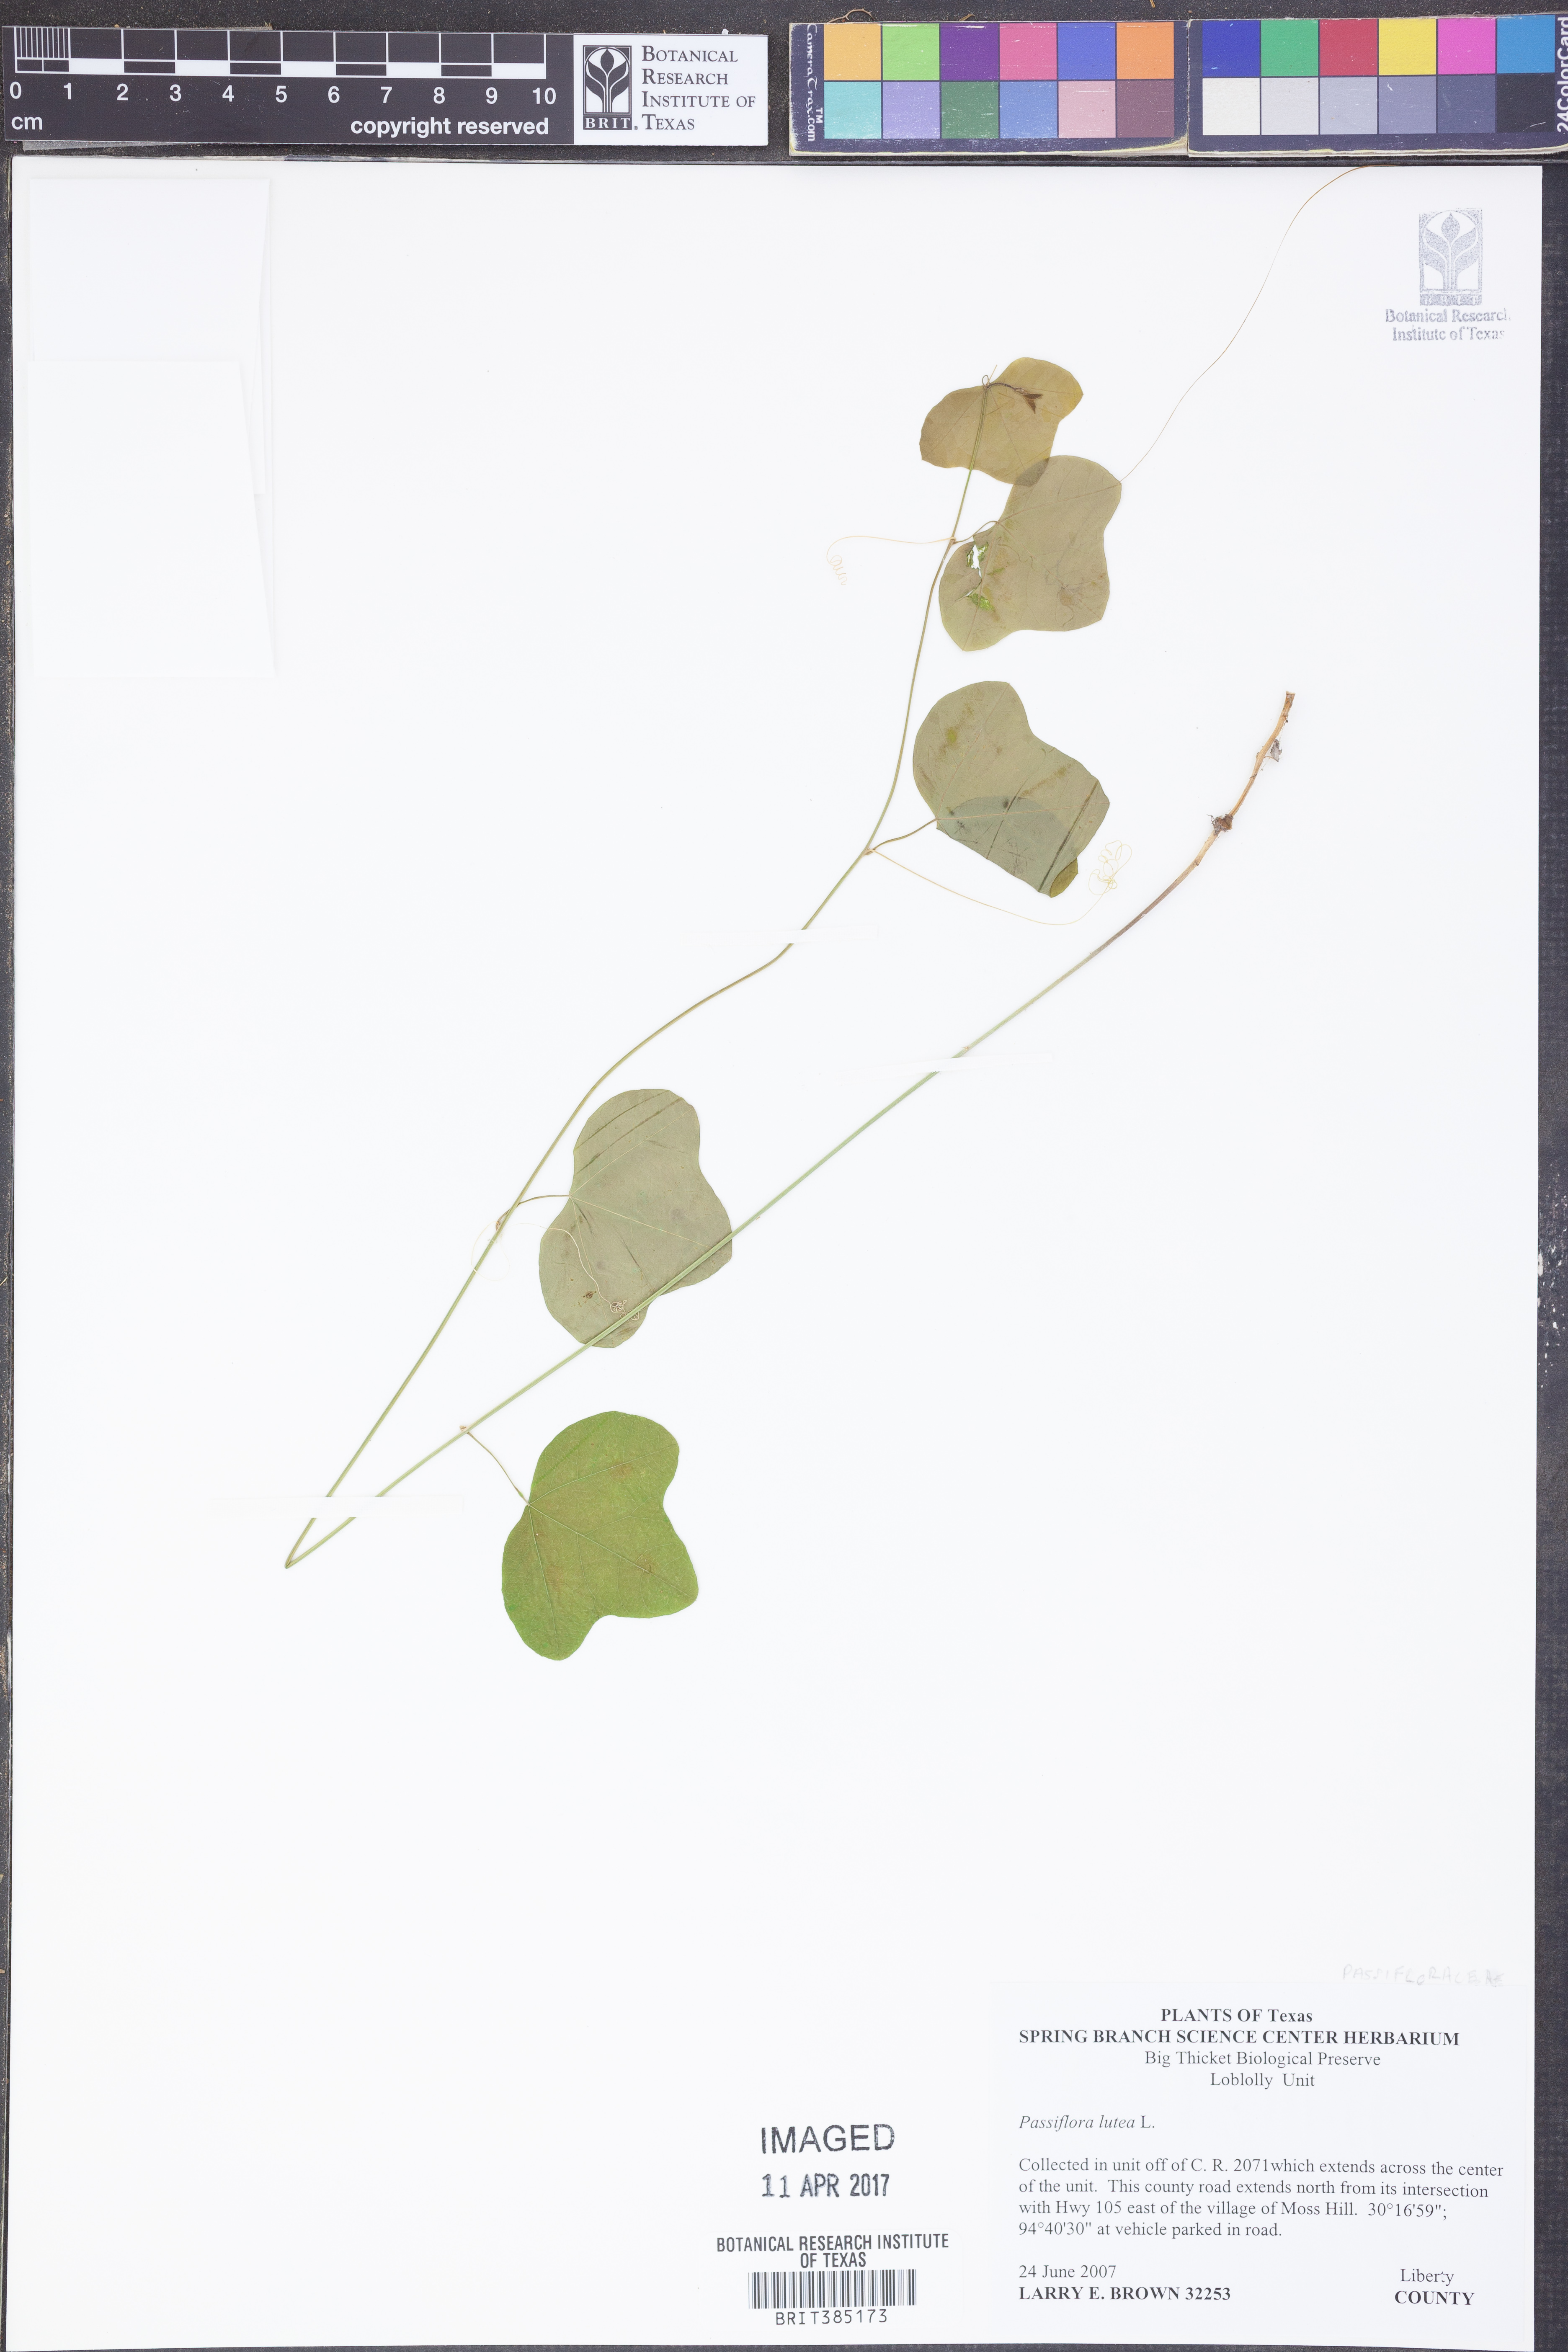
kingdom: Plantae
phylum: Tracheophyta
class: Magnoliopsida
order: Malpighiales
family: Passifloraceae
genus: Passiflora
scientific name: Passiflora lutea
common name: Yellow passionflower
